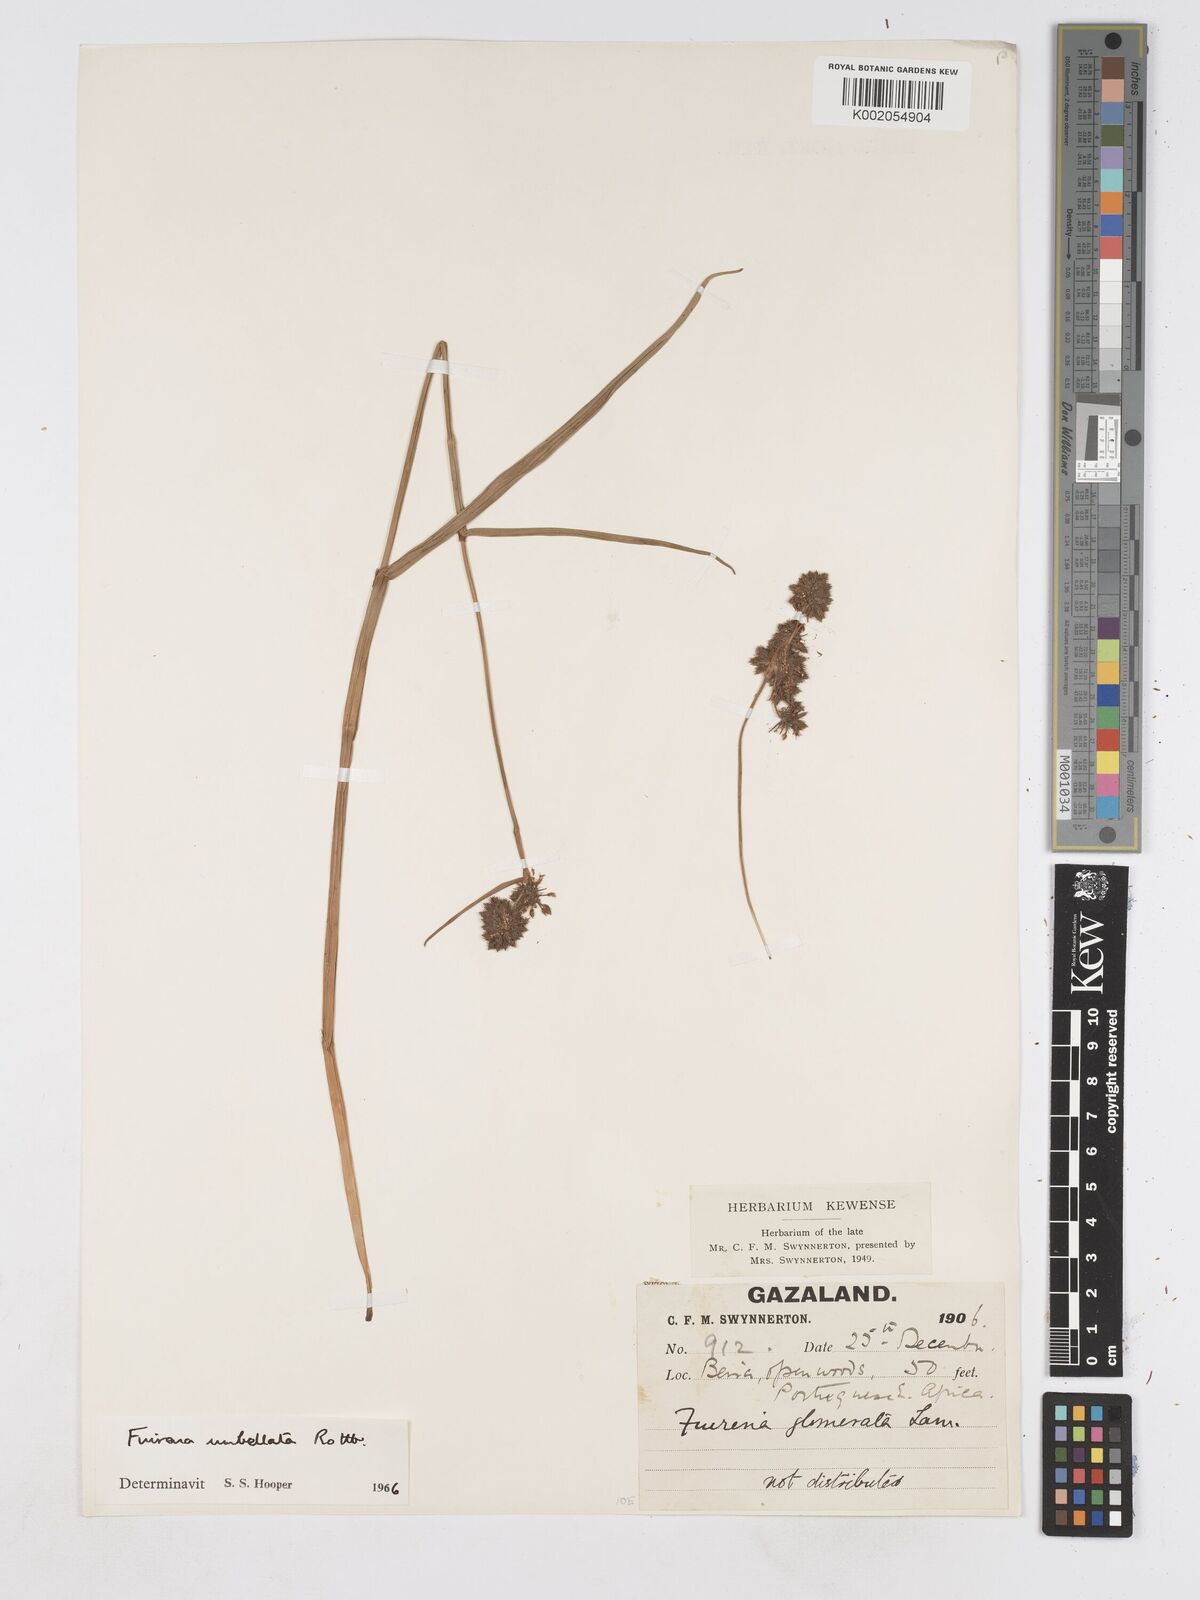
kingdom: Plantae
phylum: Tracheophyta
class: Liliopsida
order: Poales
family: Cyperaceae
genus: Fuirena
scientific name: Fuirena umbellata
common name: Yefen
